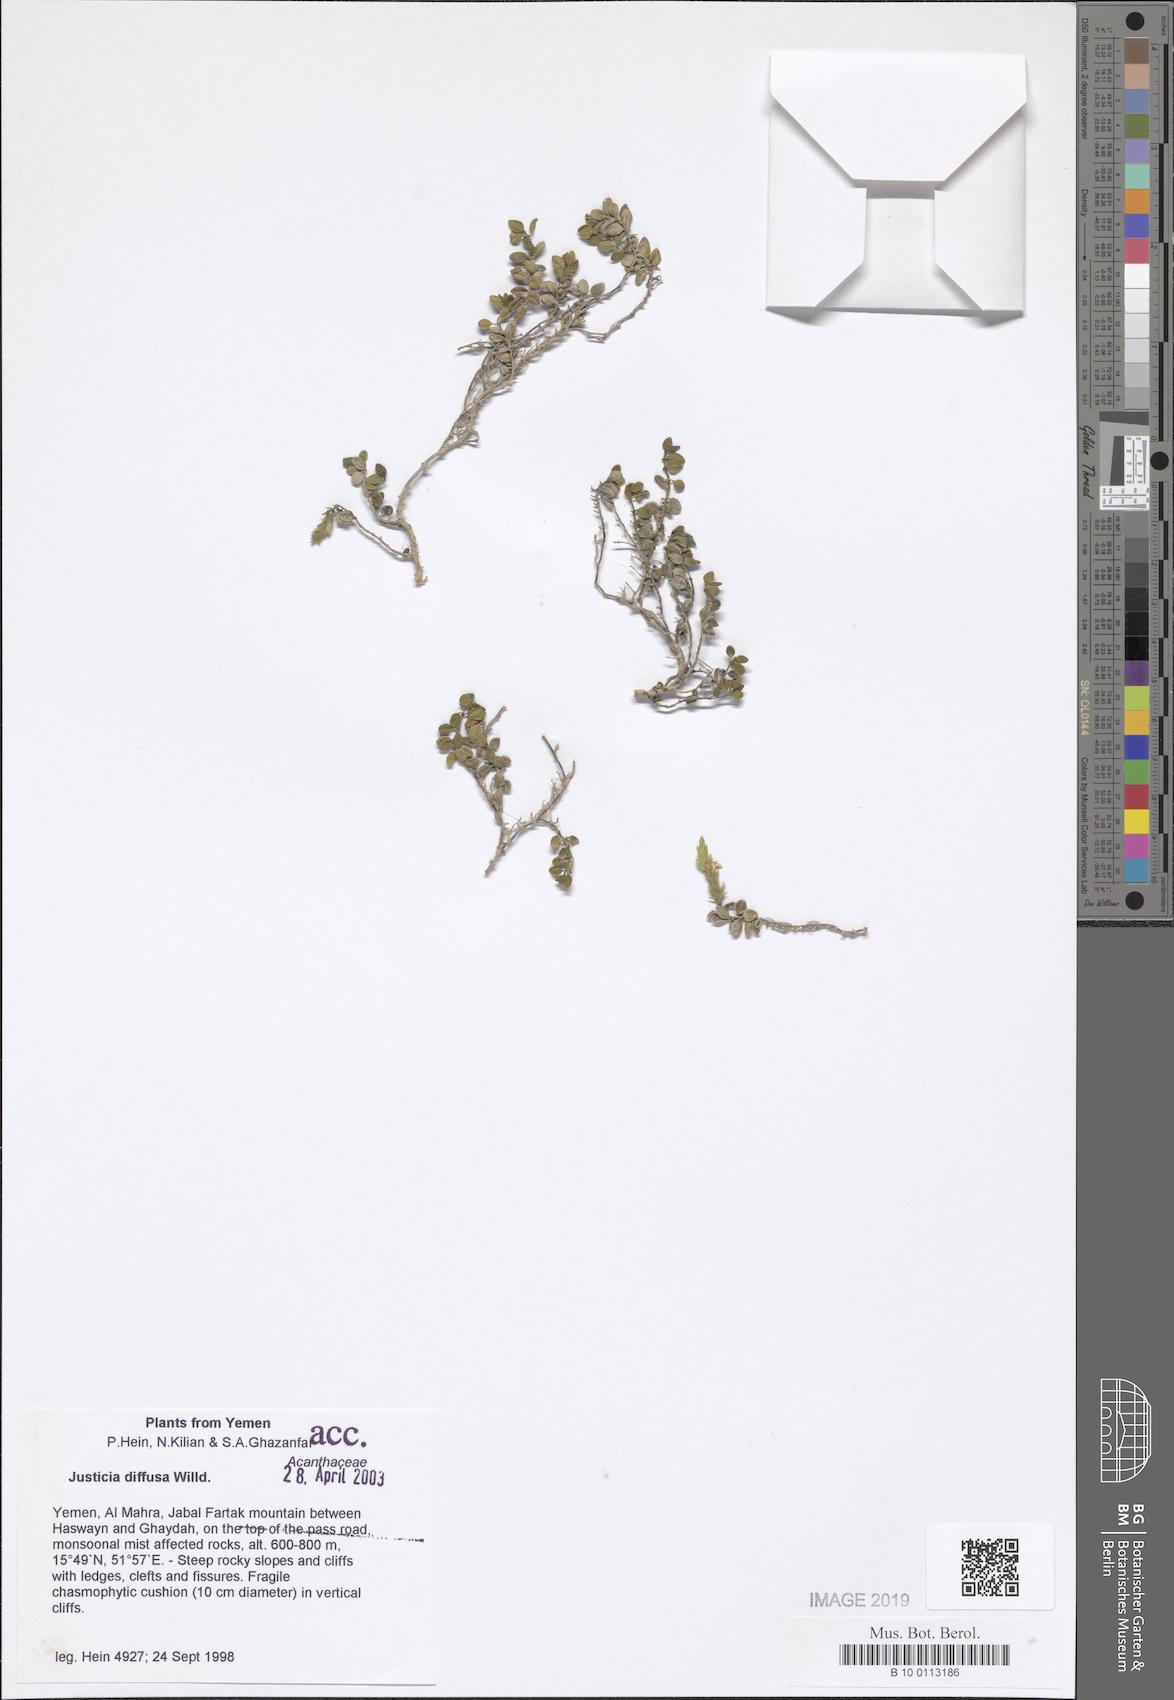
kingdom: Plantae
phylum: Tracheophyta
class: Magnoliopsida
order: Lamiales
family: Acanthaceae
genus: Rostellularia
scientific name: Rostellularia diffusa
